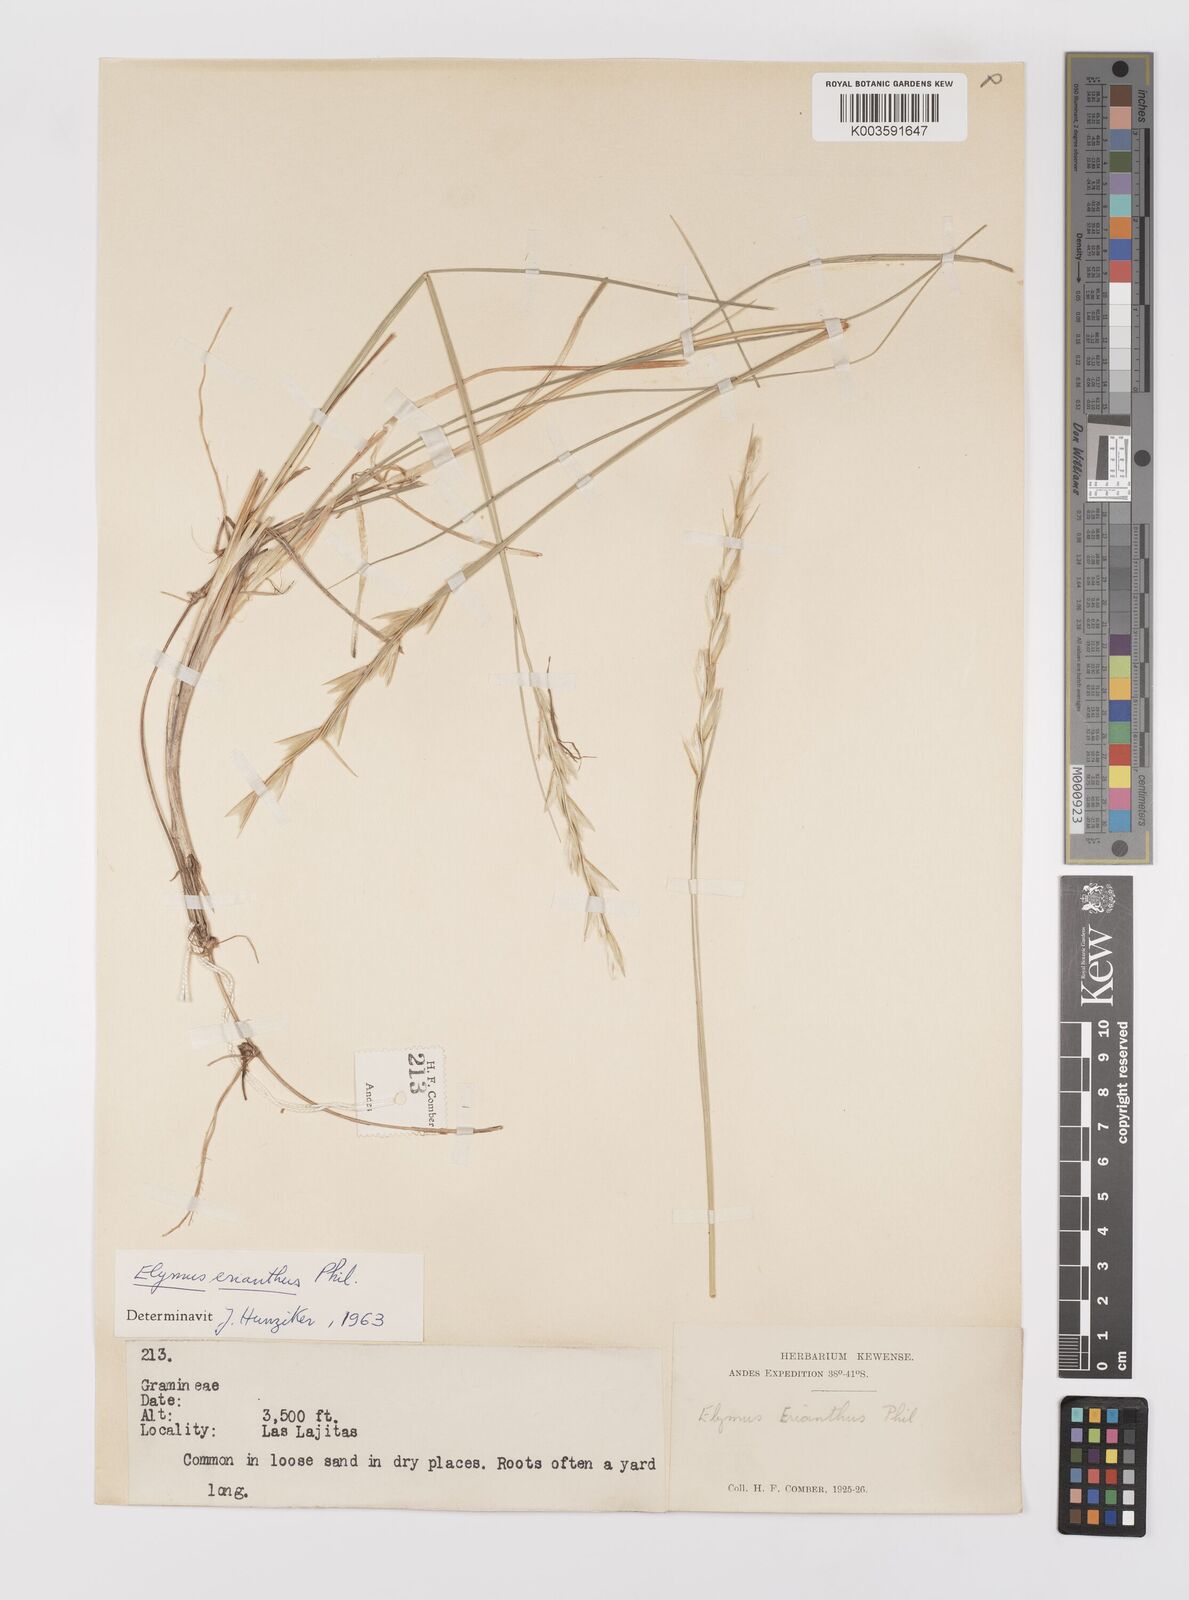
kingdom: Plantae
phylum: Tracheophyta
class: Liliopsida
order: Poales
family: Poaceae
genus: Leymus
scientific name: Leymus erianthus
